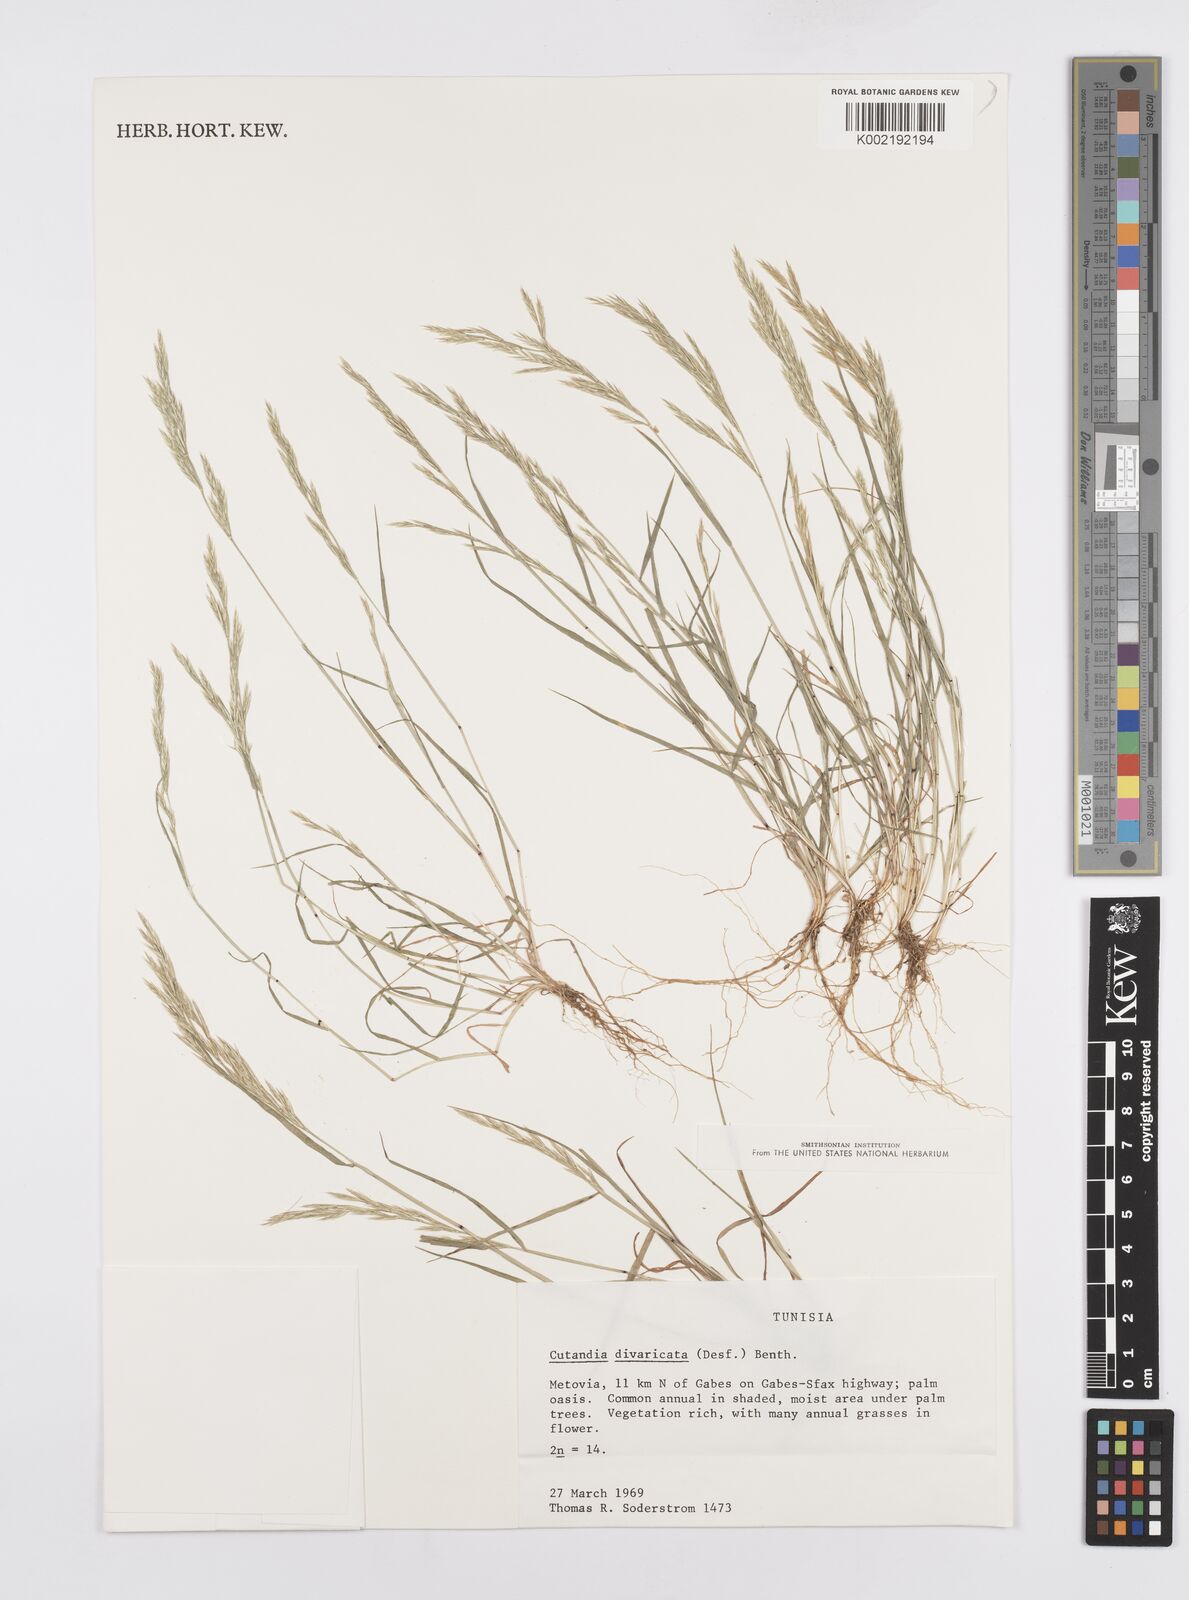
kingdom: Plantae
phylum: Tracheophyta
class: Liliopsida
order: Poales
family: Poaceae
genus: Cutandia
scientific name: Cutandia divaricata
